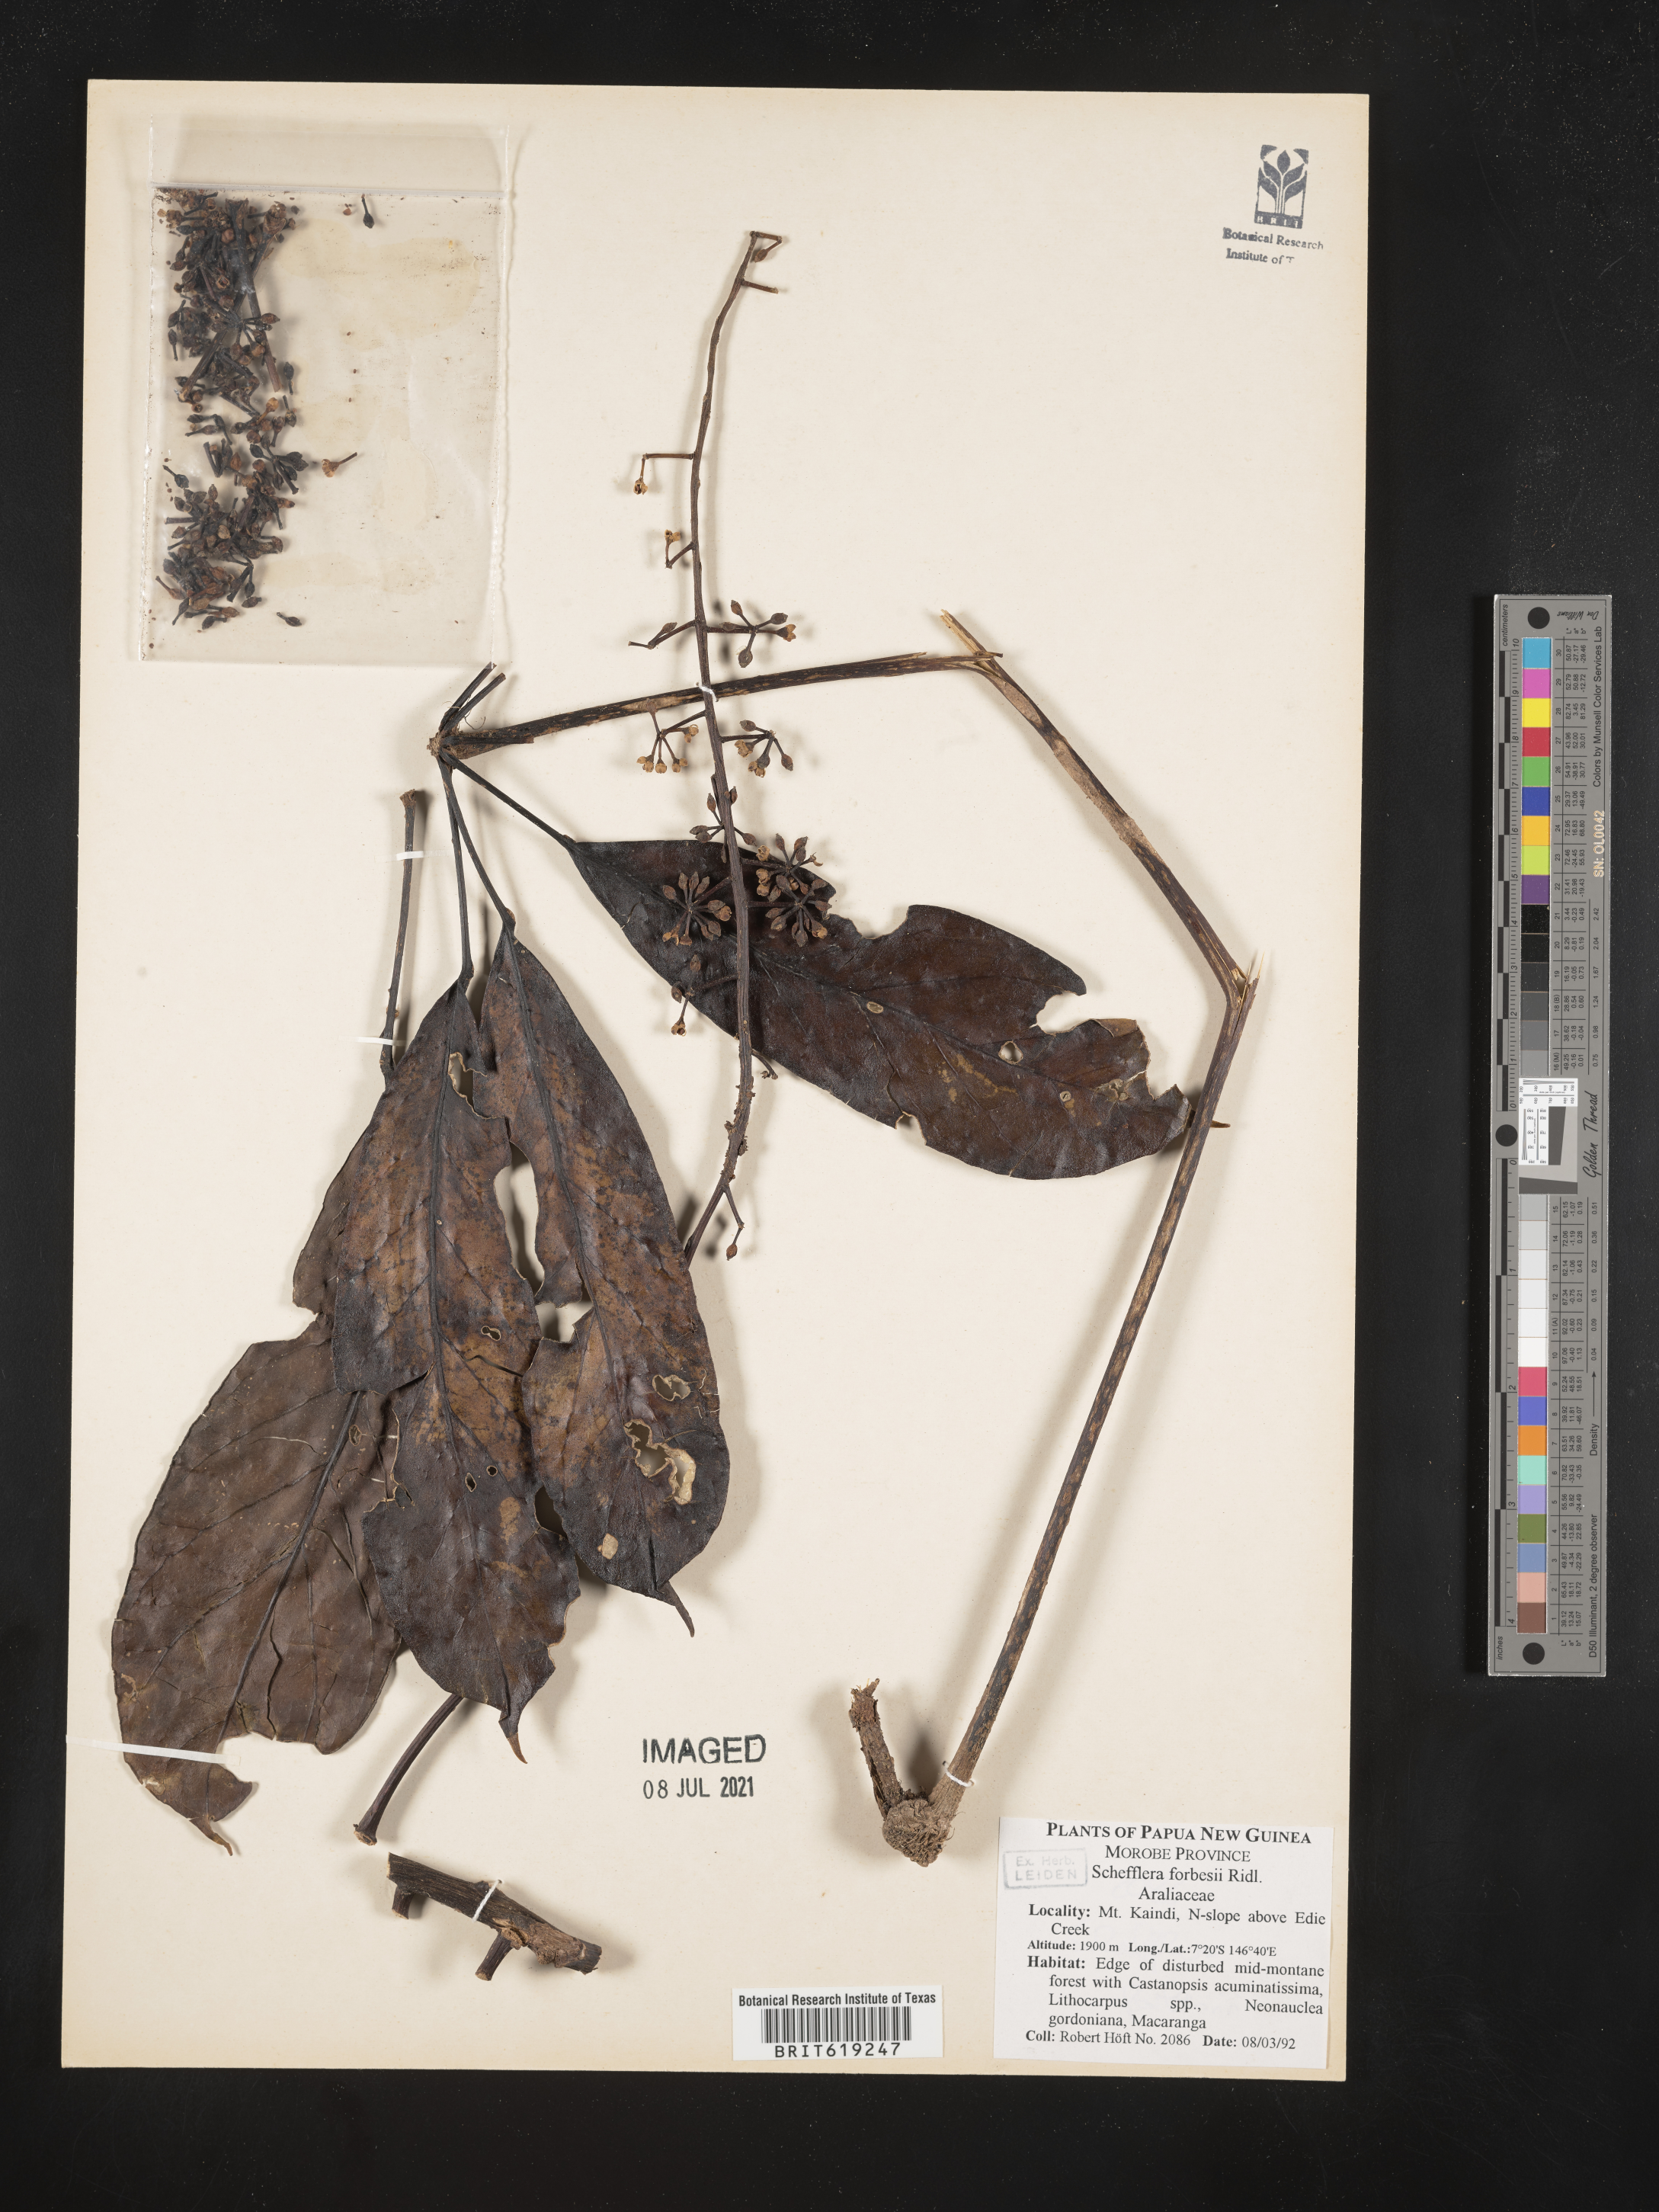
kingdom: Plantae
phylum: Tracheophyta
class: Magnoliopsida
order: Apiales
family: Araliaceae
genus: Heptapleurum
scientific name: Heptapleurum forbesii
